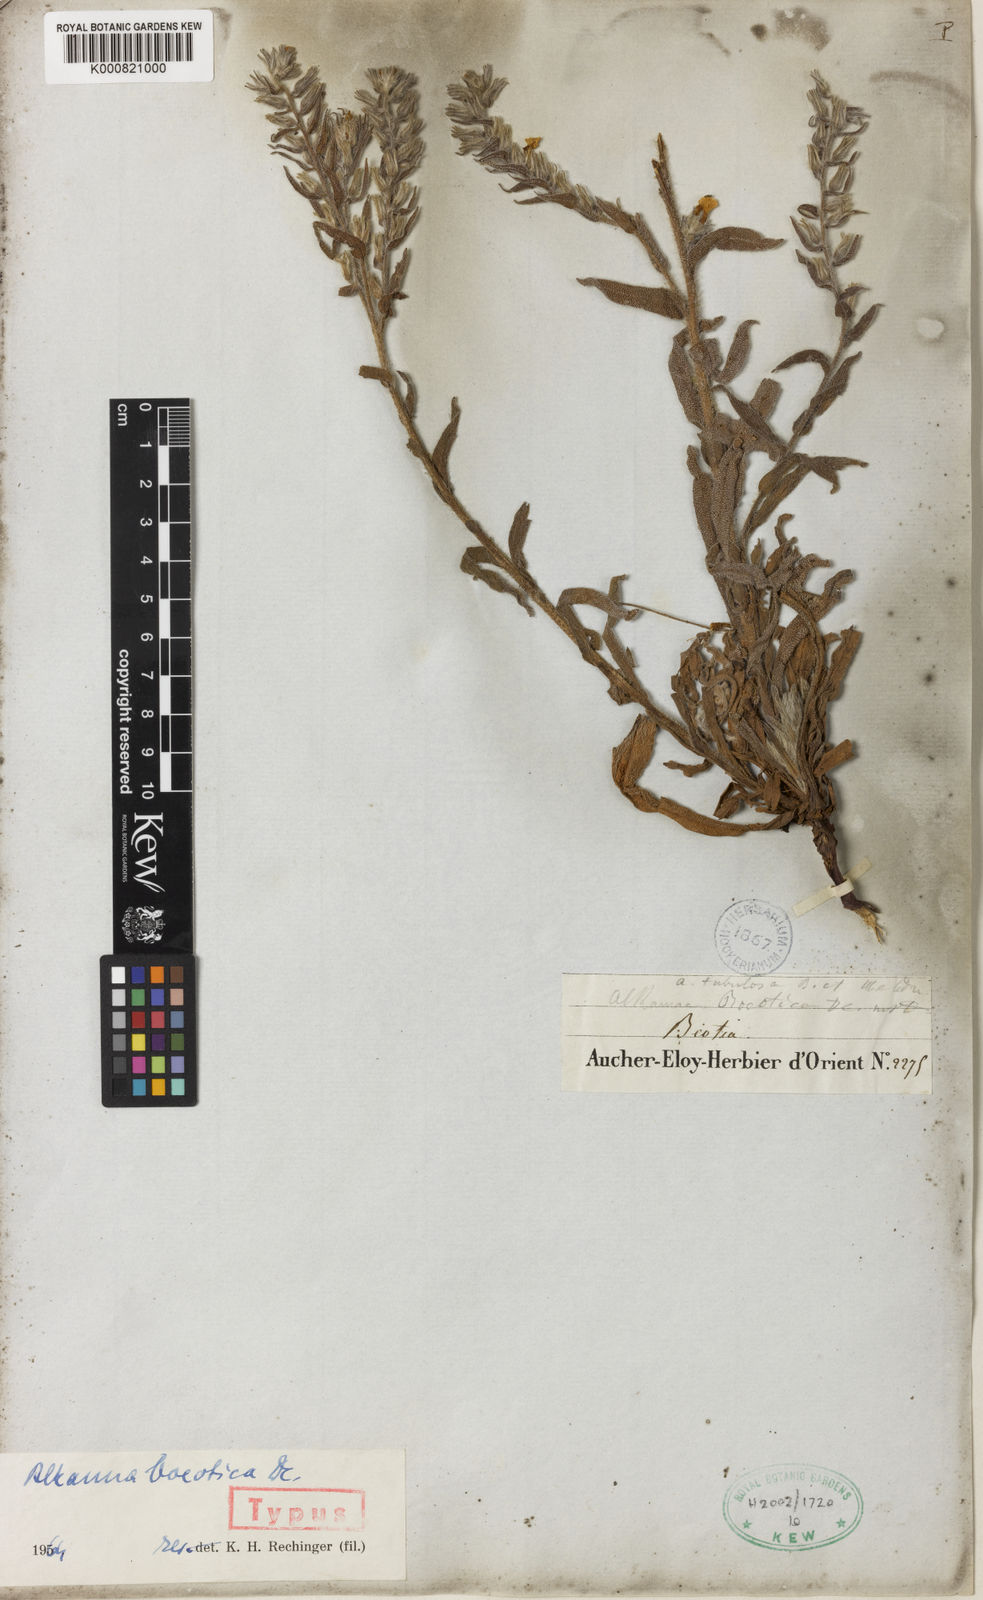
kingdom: Plantae
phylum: Tracheophyta
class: Magnoliopsida
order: Boraginales
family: Boraginaceae
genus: Alkanna
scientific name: Alkanna graeca
